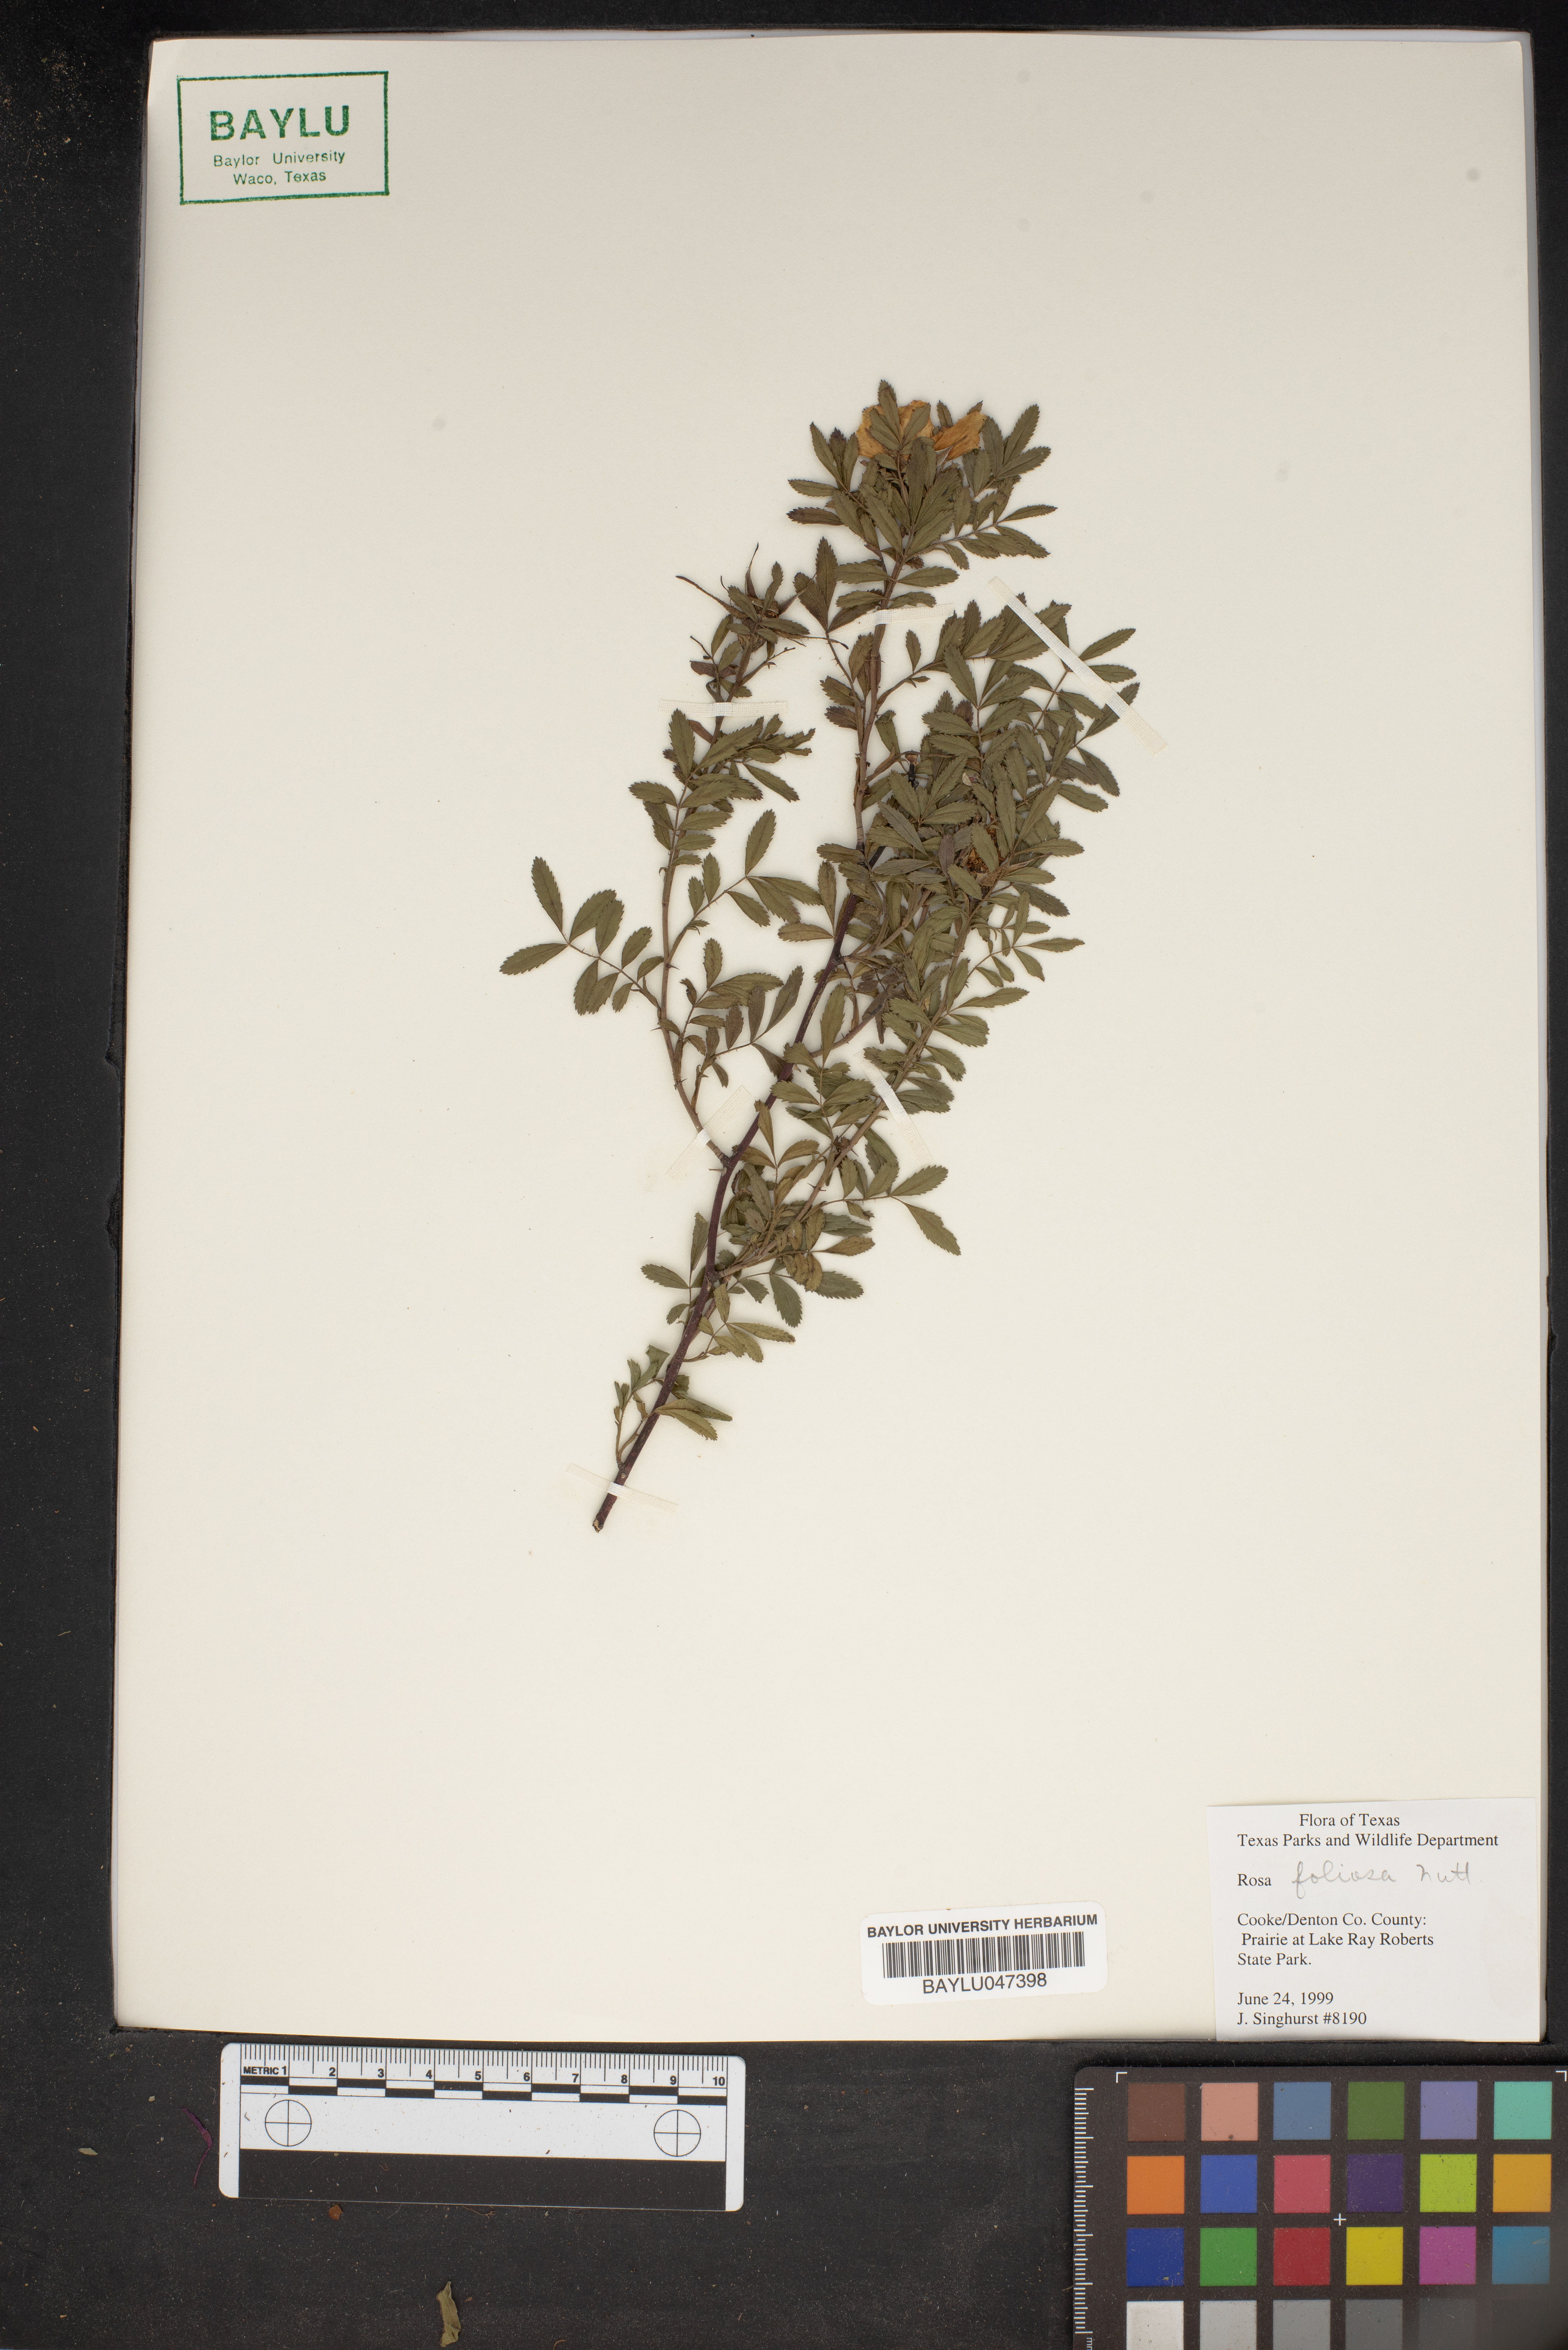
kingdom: Plantae
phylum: Tracheophyta
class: Magnoliopsida
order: Rosales
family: Rosaceae
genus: Rosa
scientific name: Rosa foliolosa
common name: White prairie rose
